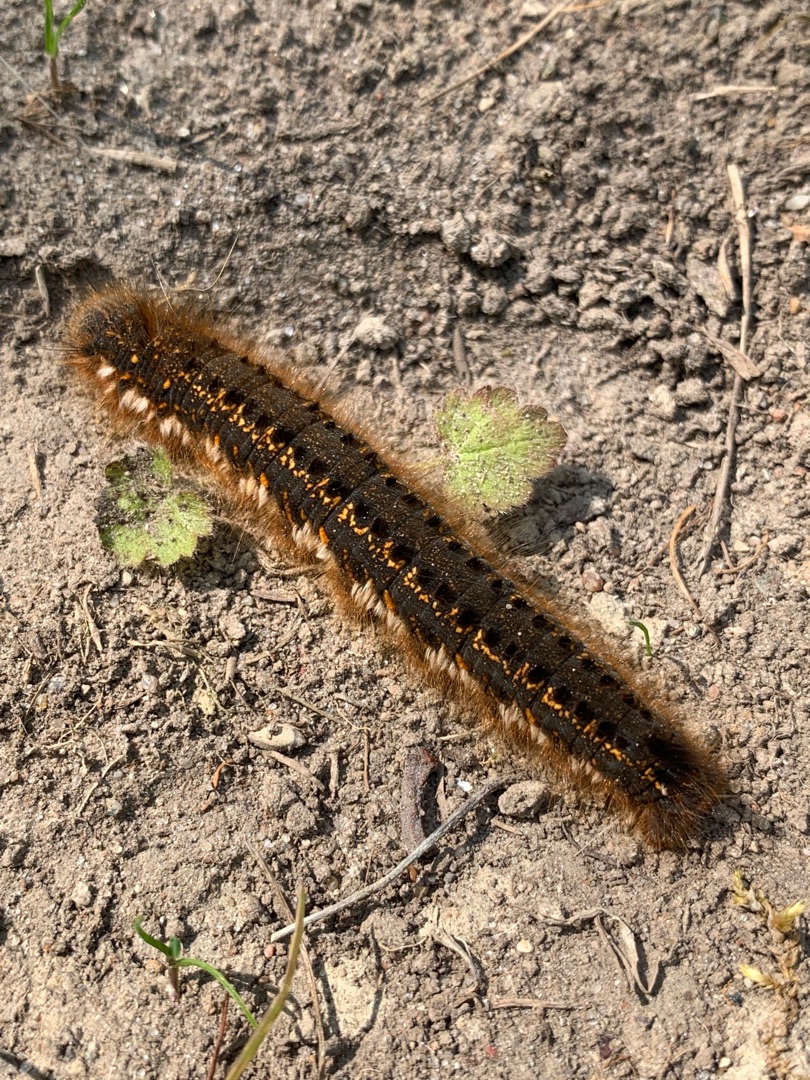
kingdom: Animalia
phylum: Arthropoda
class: Insecta
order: Lepidoptera
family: Lasiocampidae
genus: Euthrix
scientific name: Euthrix potatoria
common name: Græsspinder
